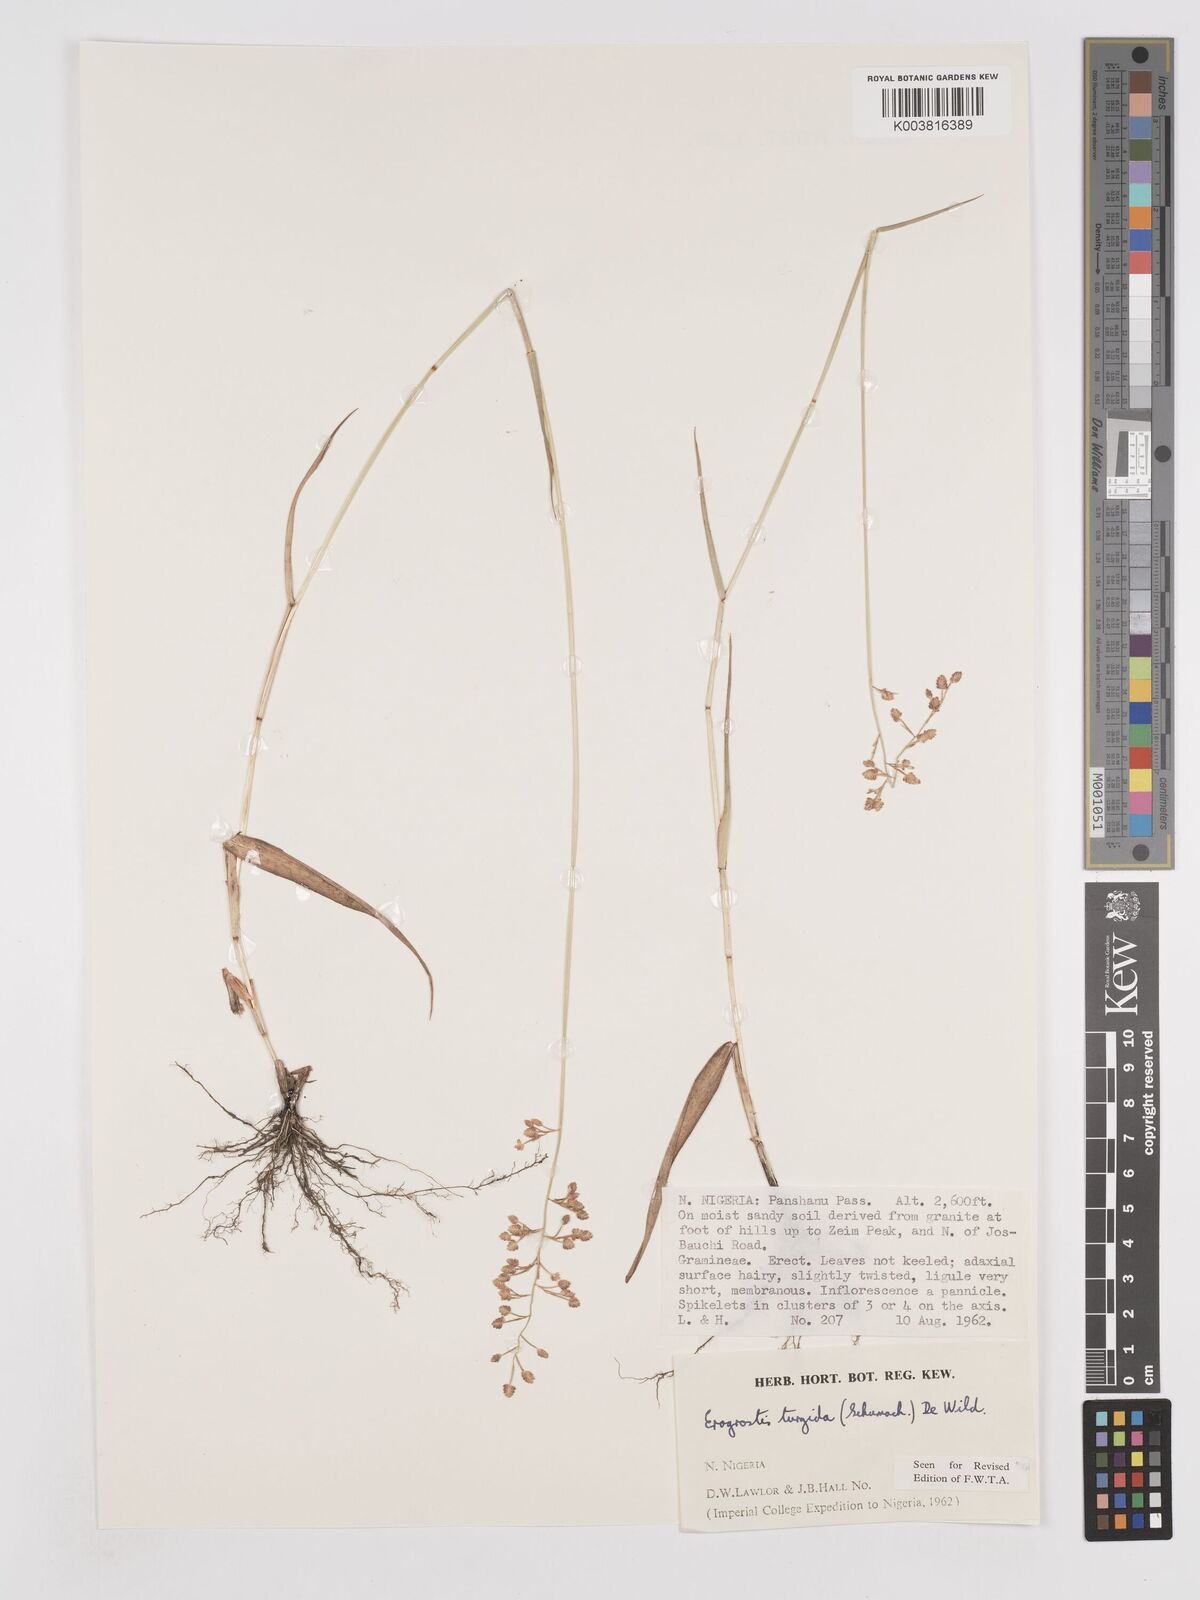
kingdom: Plantae
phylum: Tracheophyta
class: Liliopsida
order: Poales
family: Poaceae
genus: Eragrostis
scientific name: Eragrostis turgida
